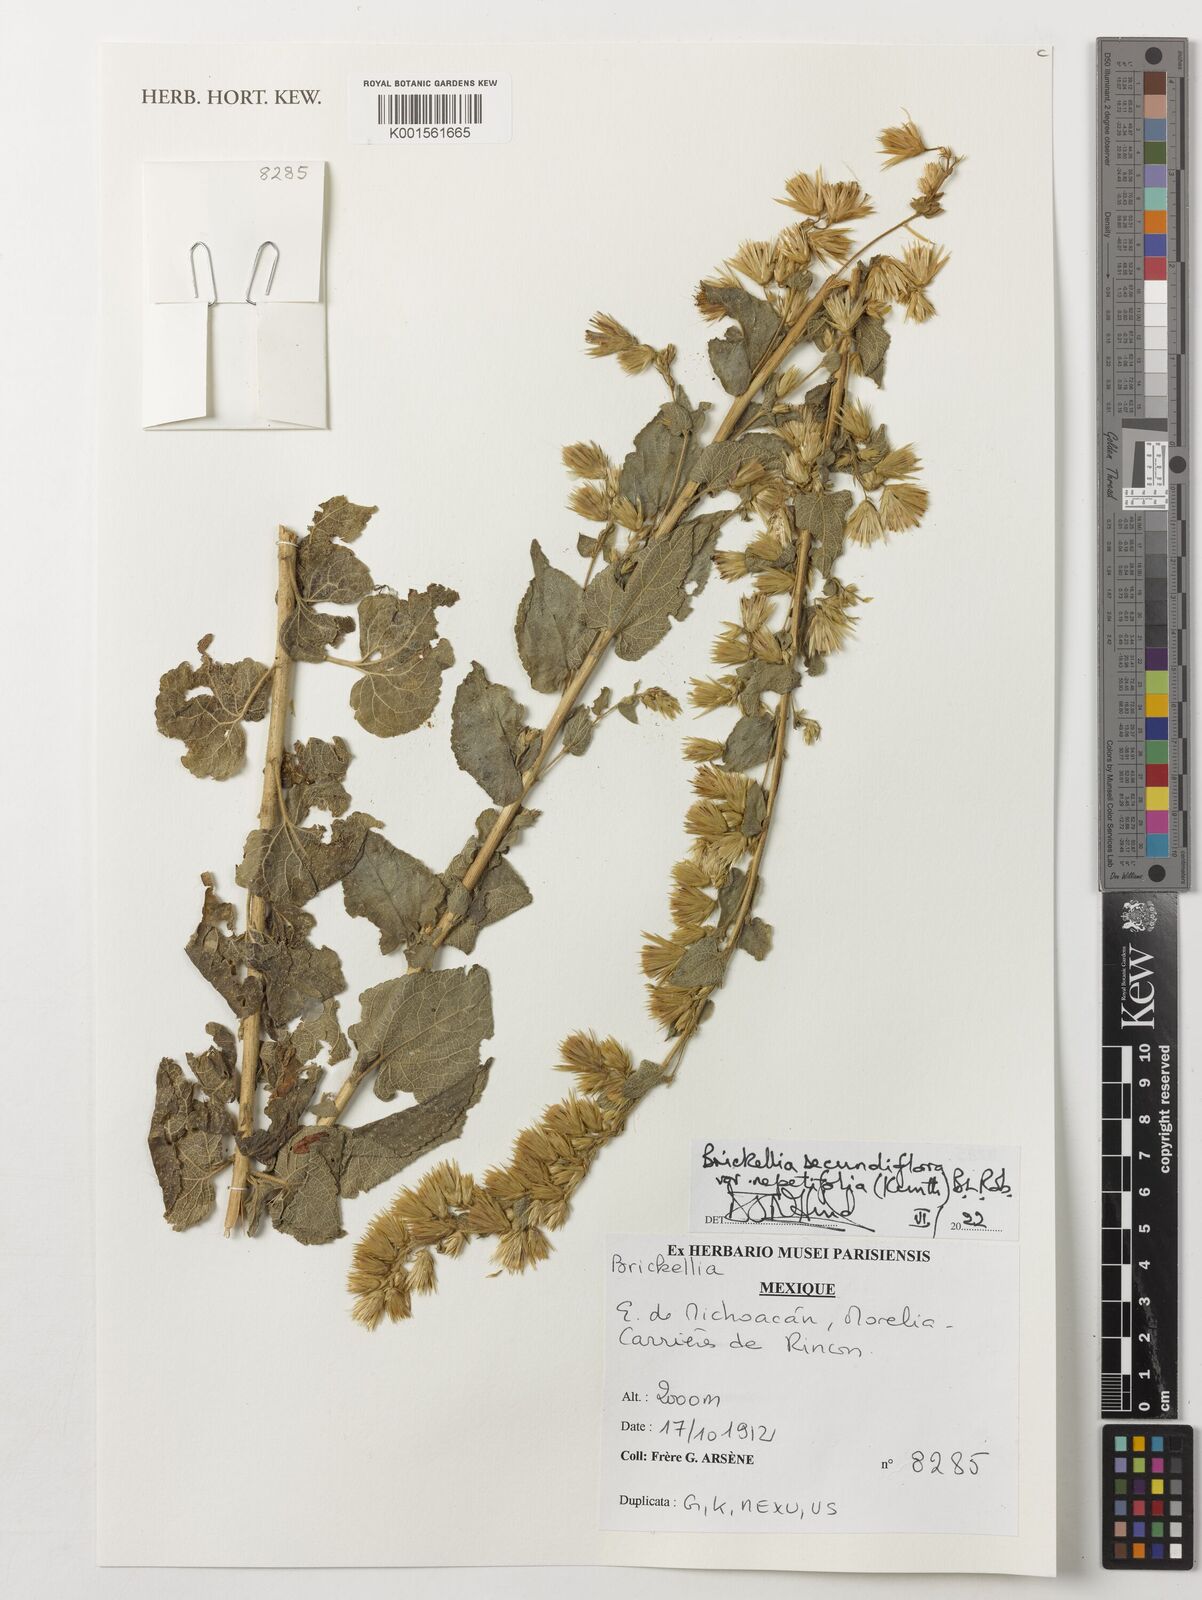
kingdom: Plantae
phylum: Tracheophyta
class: Magnoliopsida
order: Asterales
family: Asteraceae
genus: Brickellia
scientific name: Brickellia secundiflora
